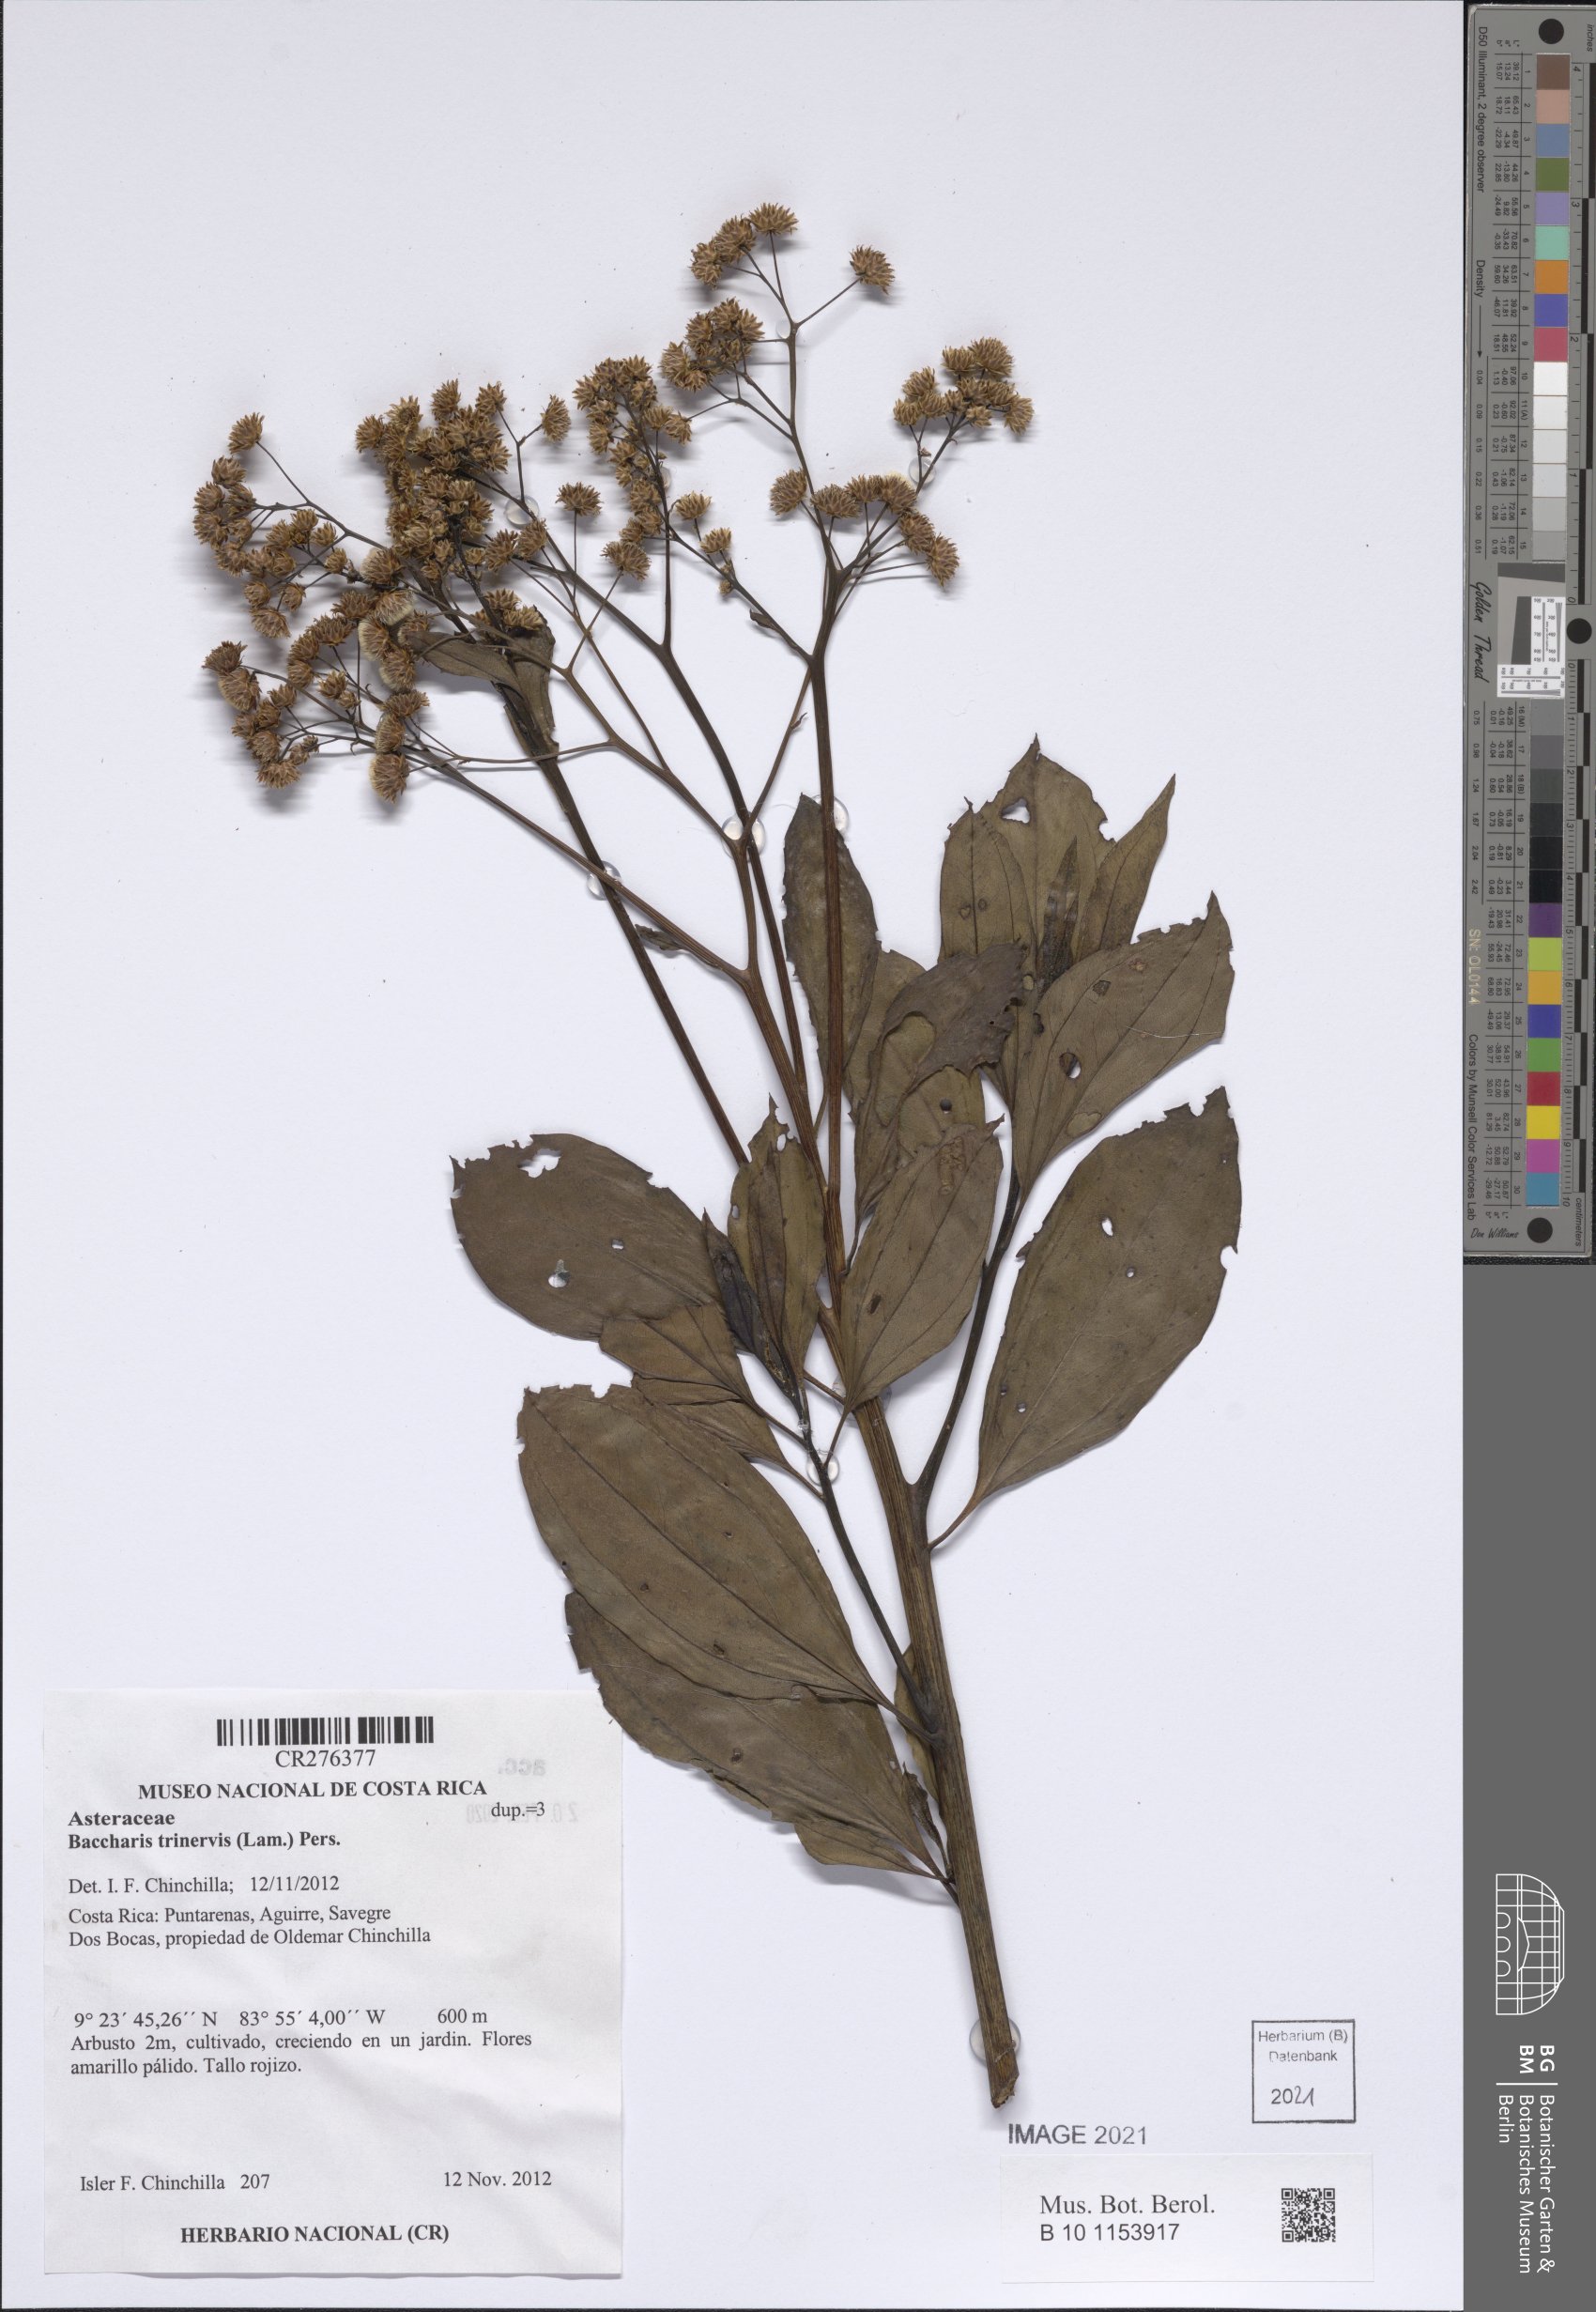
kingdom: Plantae
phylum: Tracheophyta
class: Magnoliopsida
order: Asterales
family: Asteraceae
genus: Baccharis
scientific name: Baccharis trinervis
